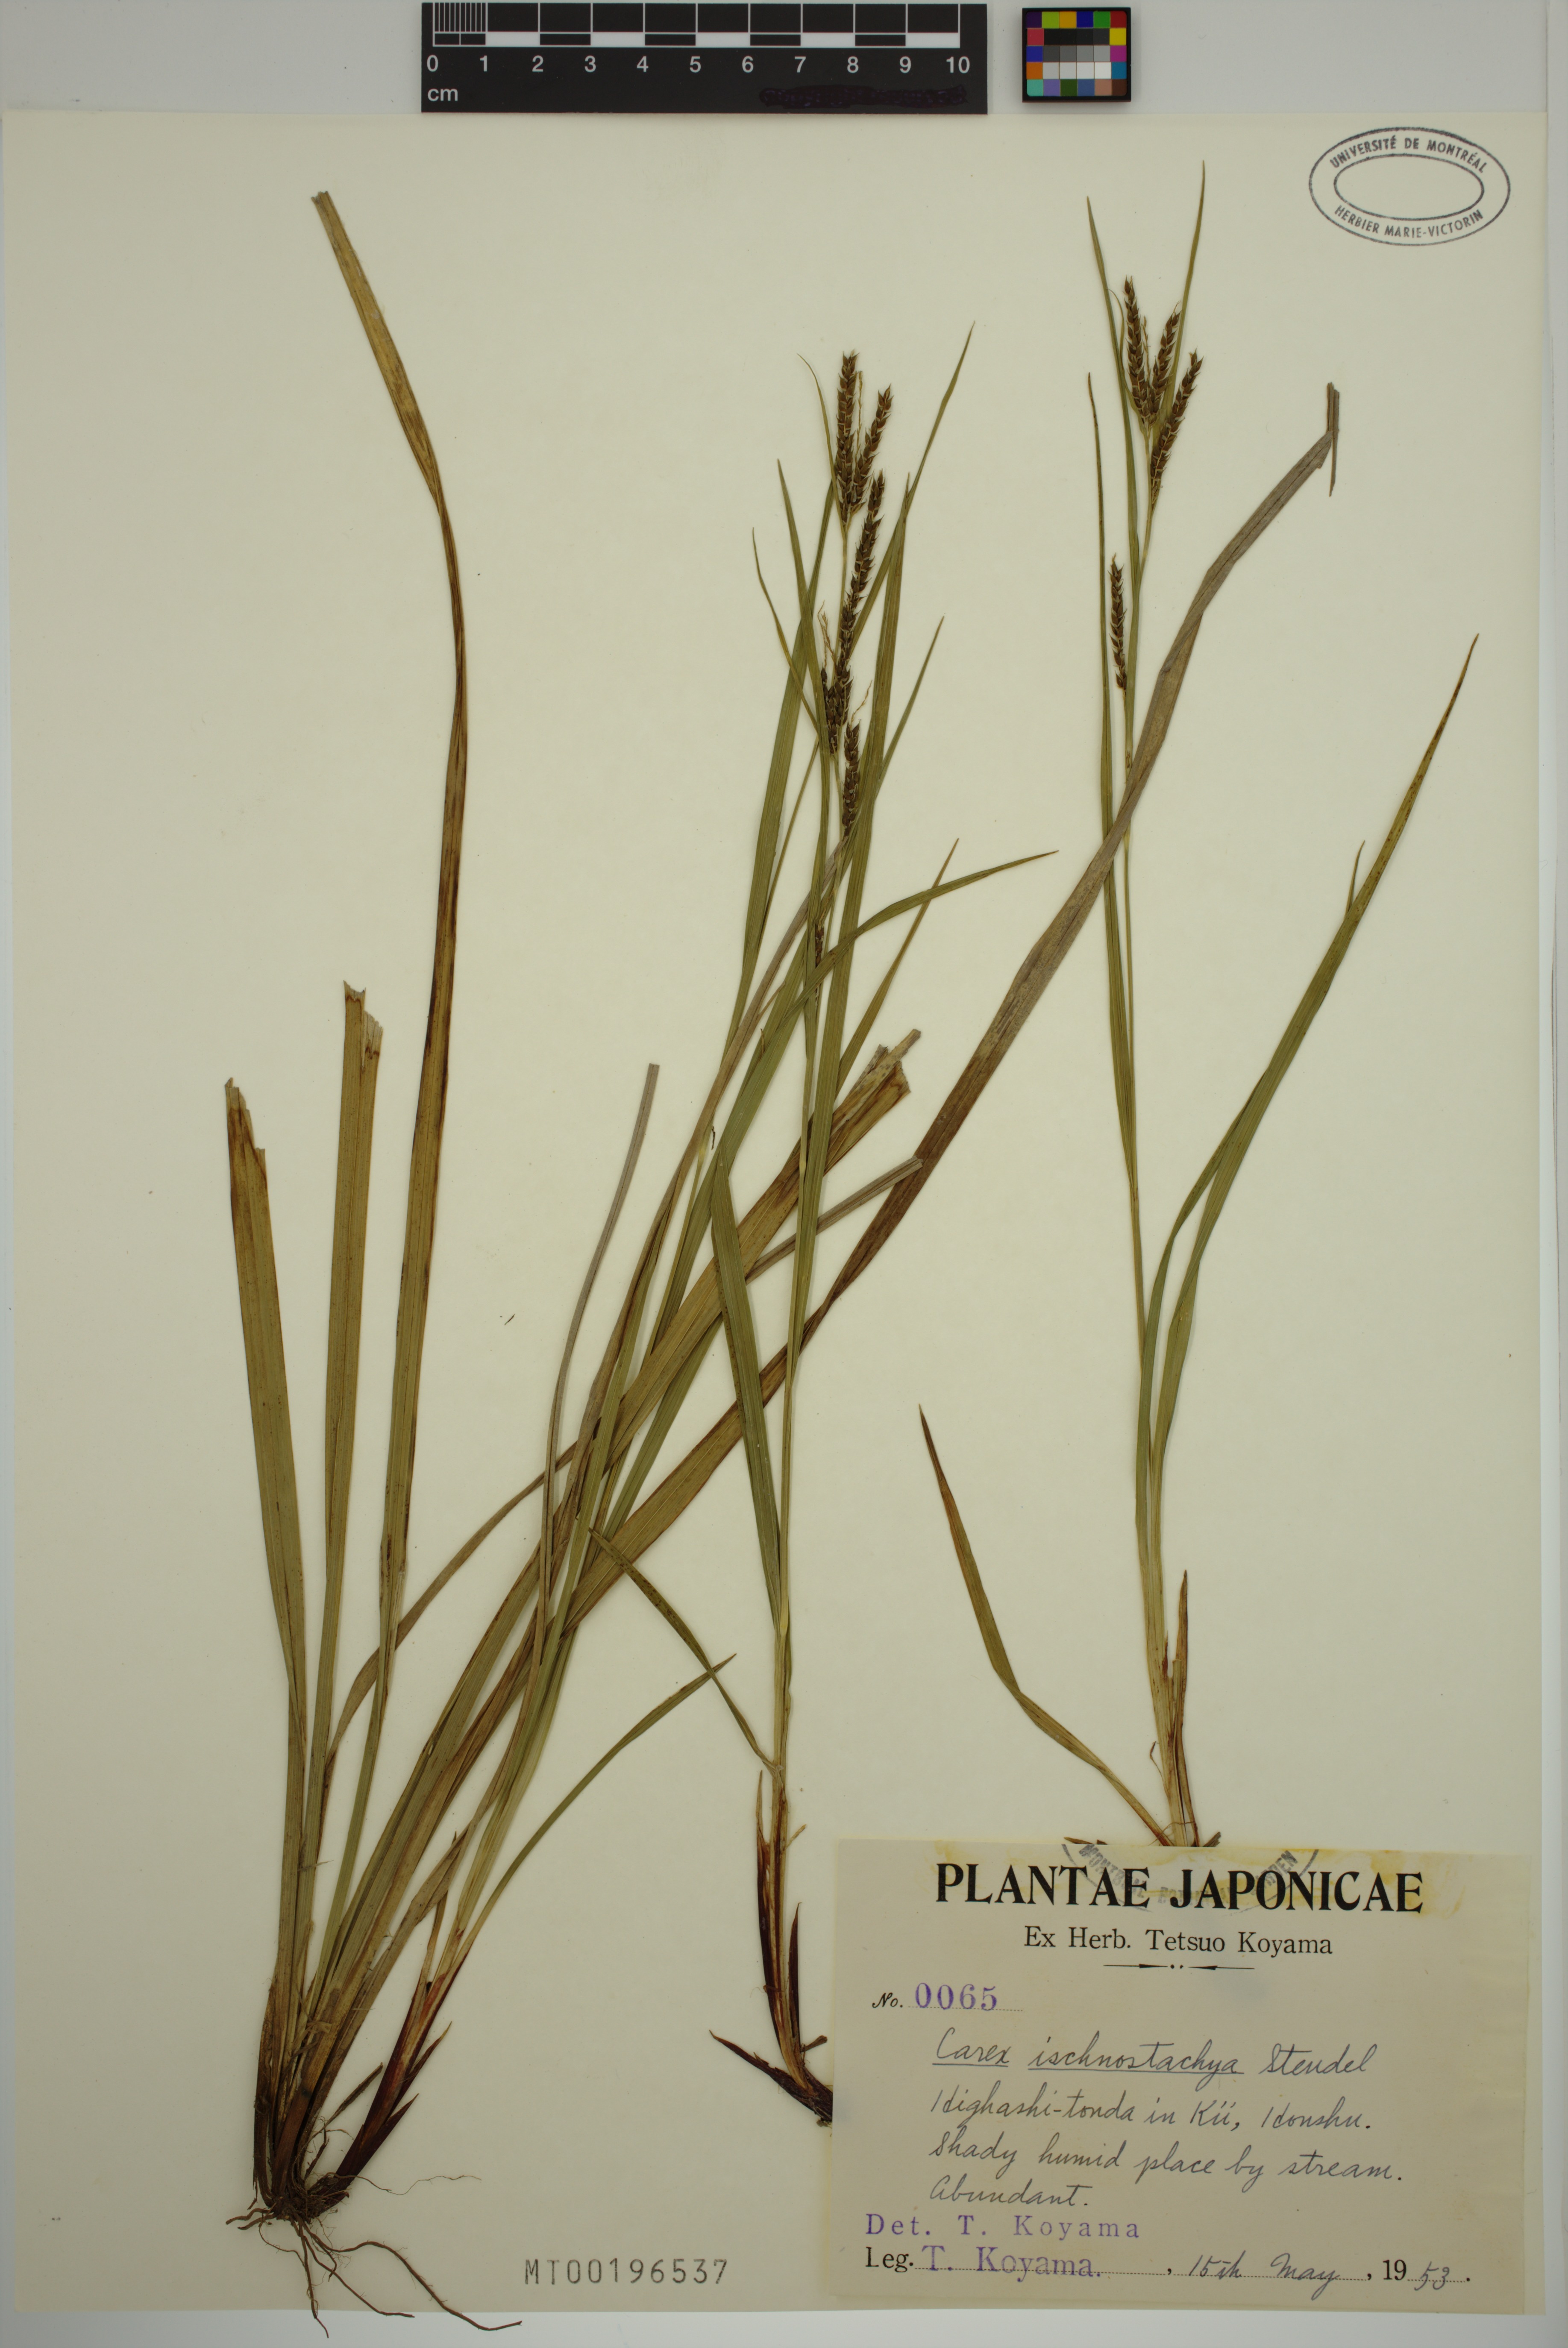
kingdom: Plantae
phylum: Tracheophyta
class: Liliopsida
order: Poales
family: Cyperaceae
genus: Carex
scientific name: Carex ischnostachya
